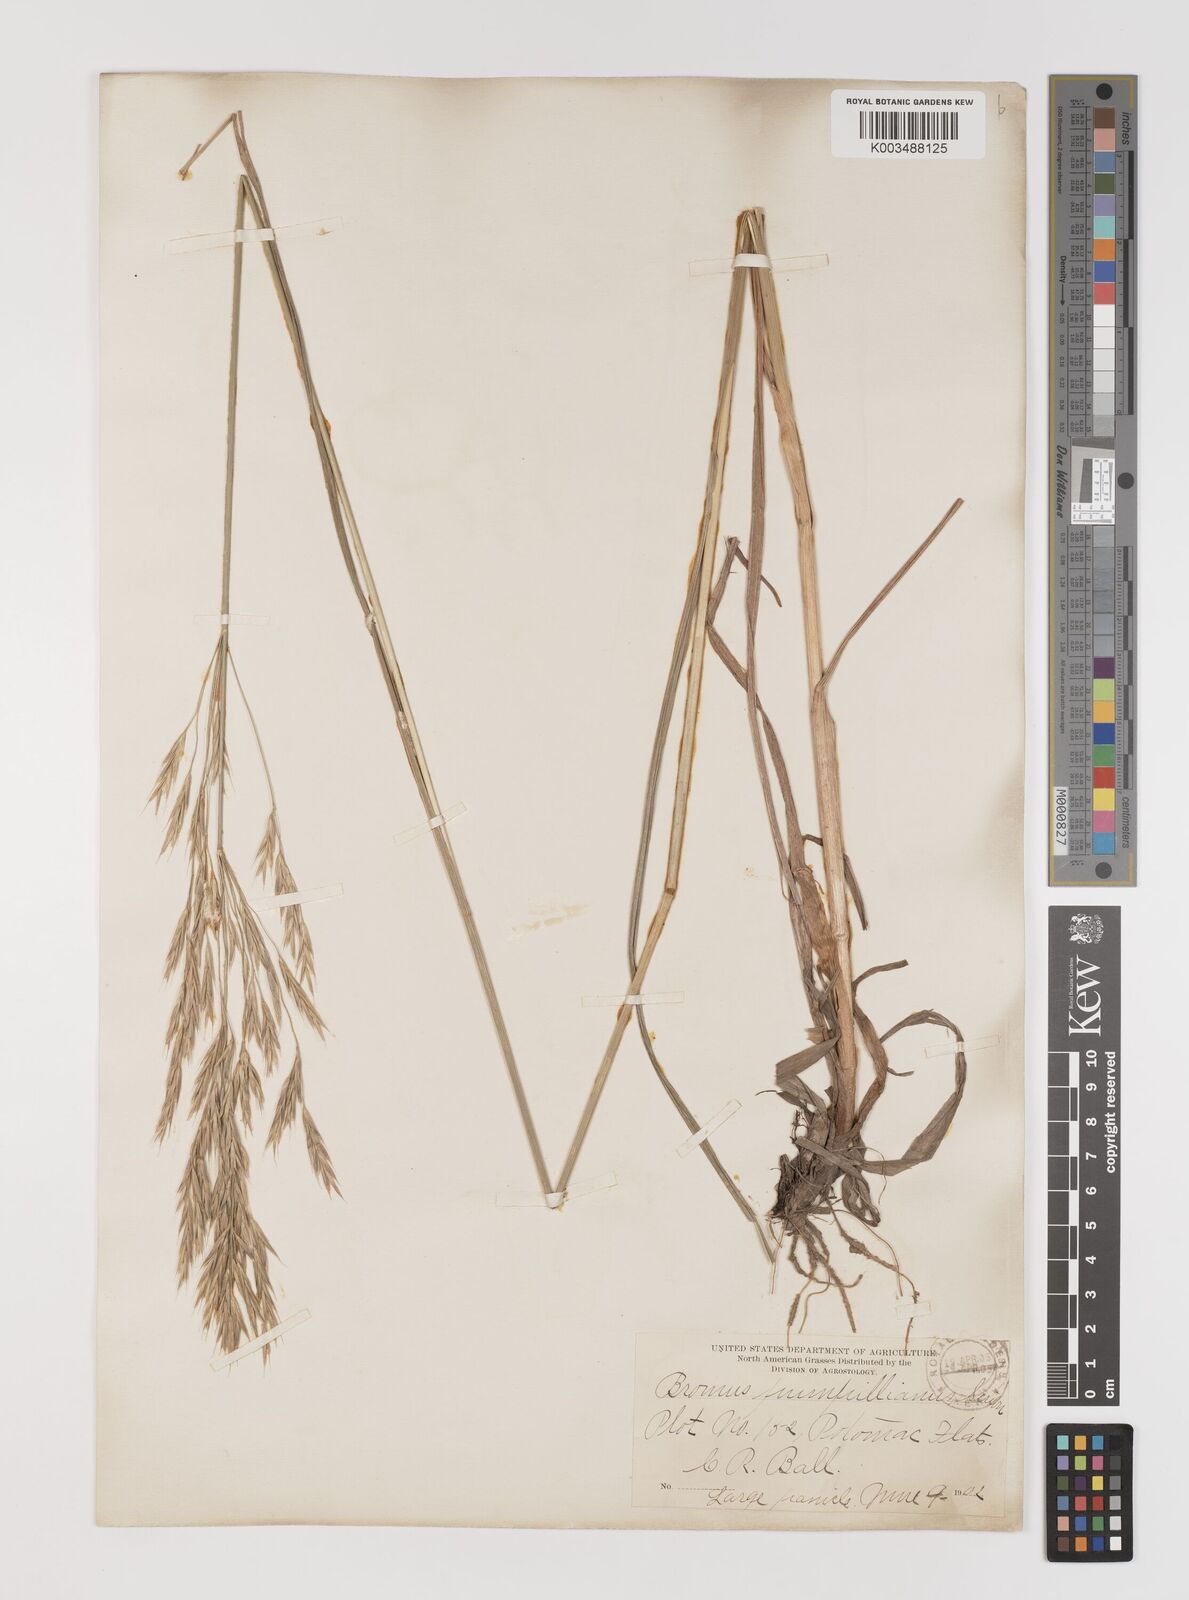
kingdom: Plantae
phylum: Tracheophyta
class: Liliopsida
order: Poales
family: Poaceae
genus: Bromus
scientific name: Bromus pumpellianus
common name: Pumpelly's brome
